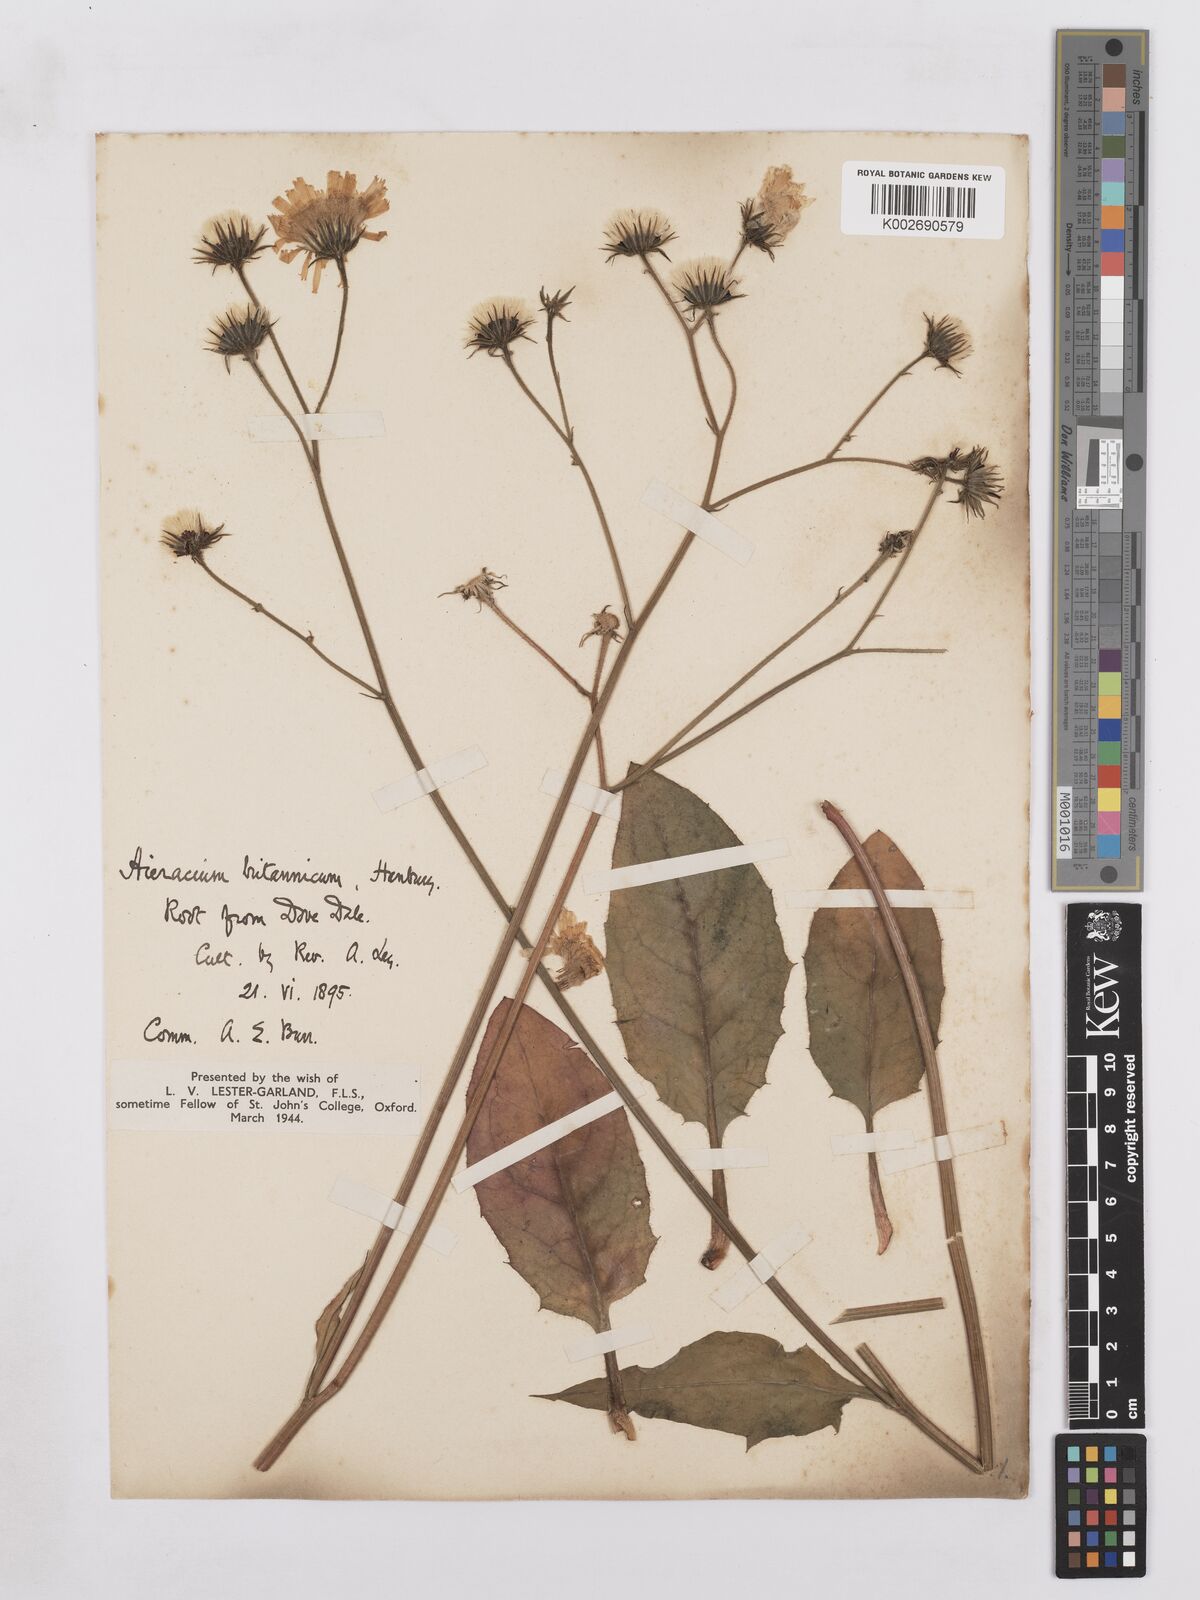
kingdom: Plantae
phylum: Tracheophyta
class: Magnoliopsida
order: Asterales
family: Asteraceae
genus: Hieracium
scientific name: Hieracium britannicum
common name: British hawkweed
